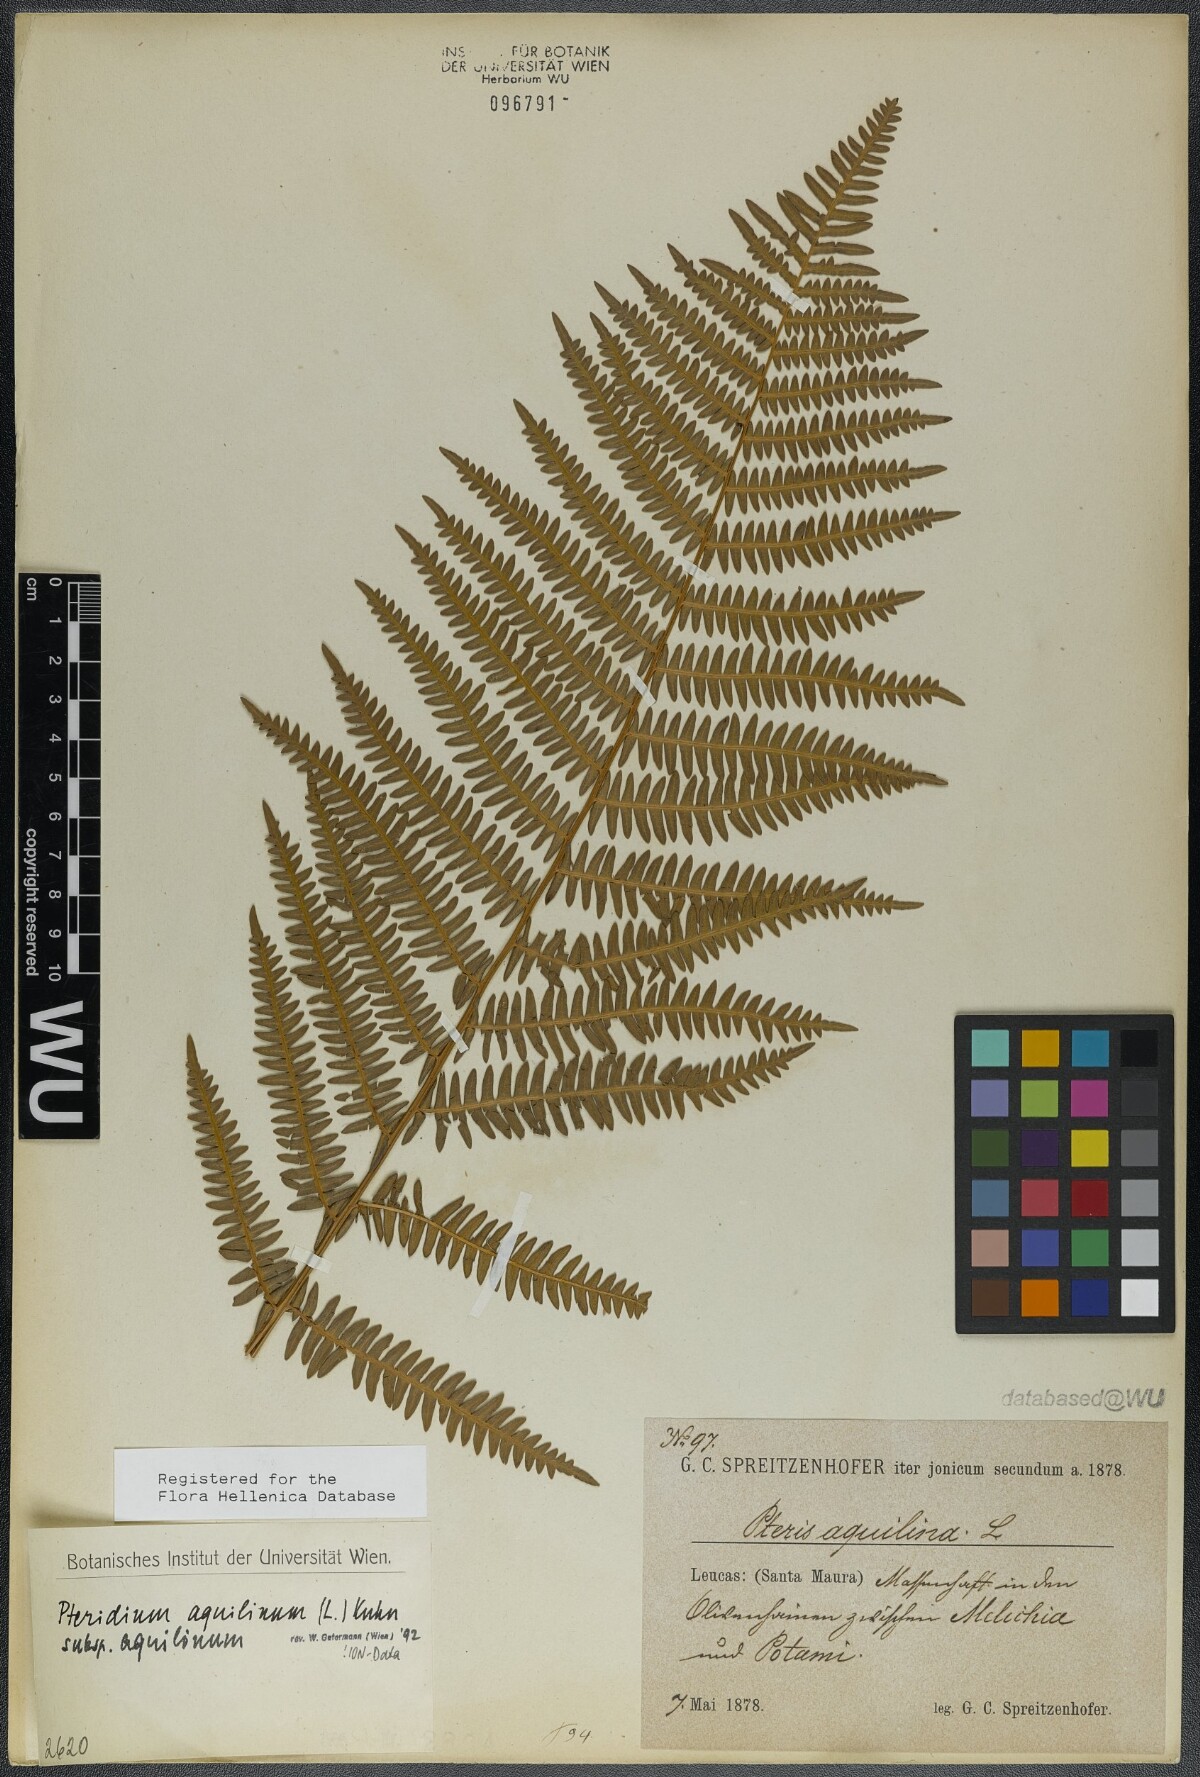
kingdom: Plantae
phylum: Tracheophyta
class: Polypodiopsida
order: Polypodiales
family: Dennstaedtiaceae
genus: Pteridium
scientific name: Pteridium aquilinum
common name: Bracken
